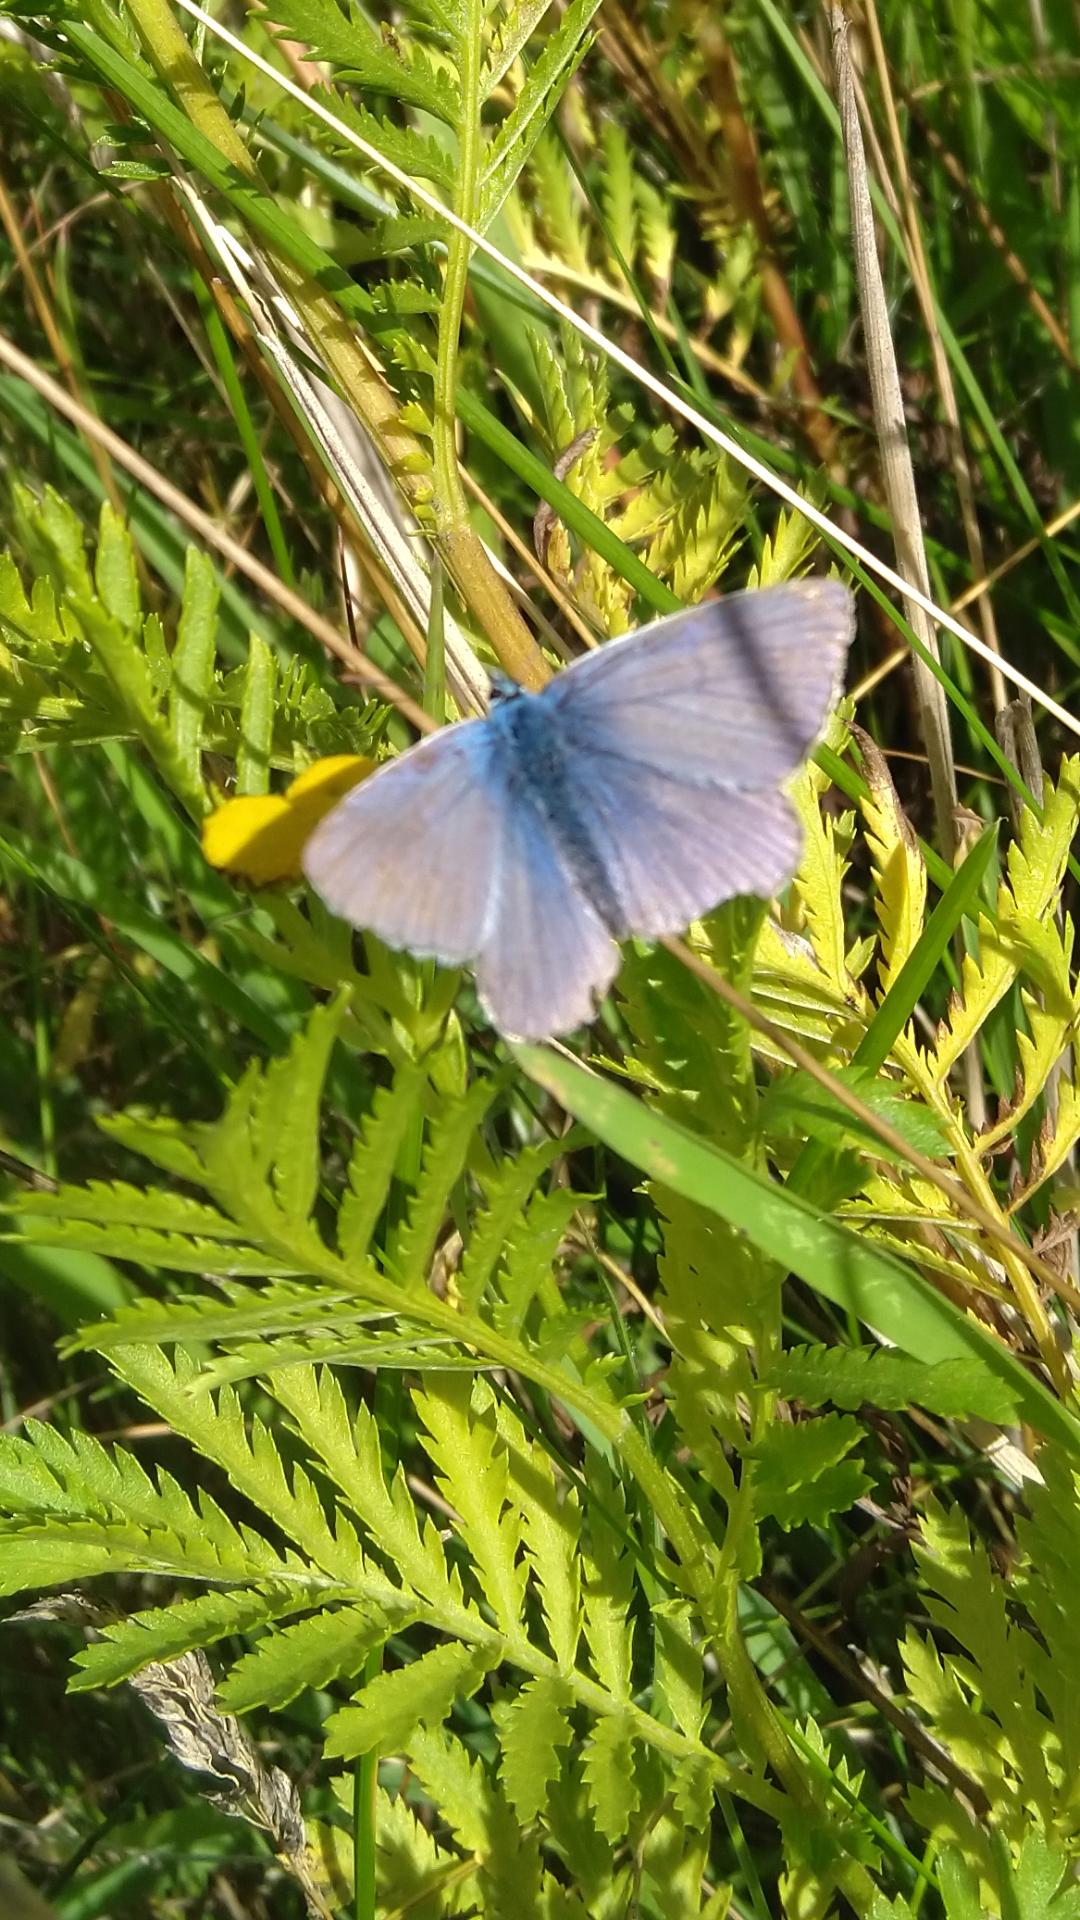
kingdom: Animalia
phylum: Arthropoda
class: Insecta
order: Lepidoptera
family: Lycaenidae
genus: Polyommatus
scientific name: Polyommatus icarus
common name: Almindelig blåfugl
